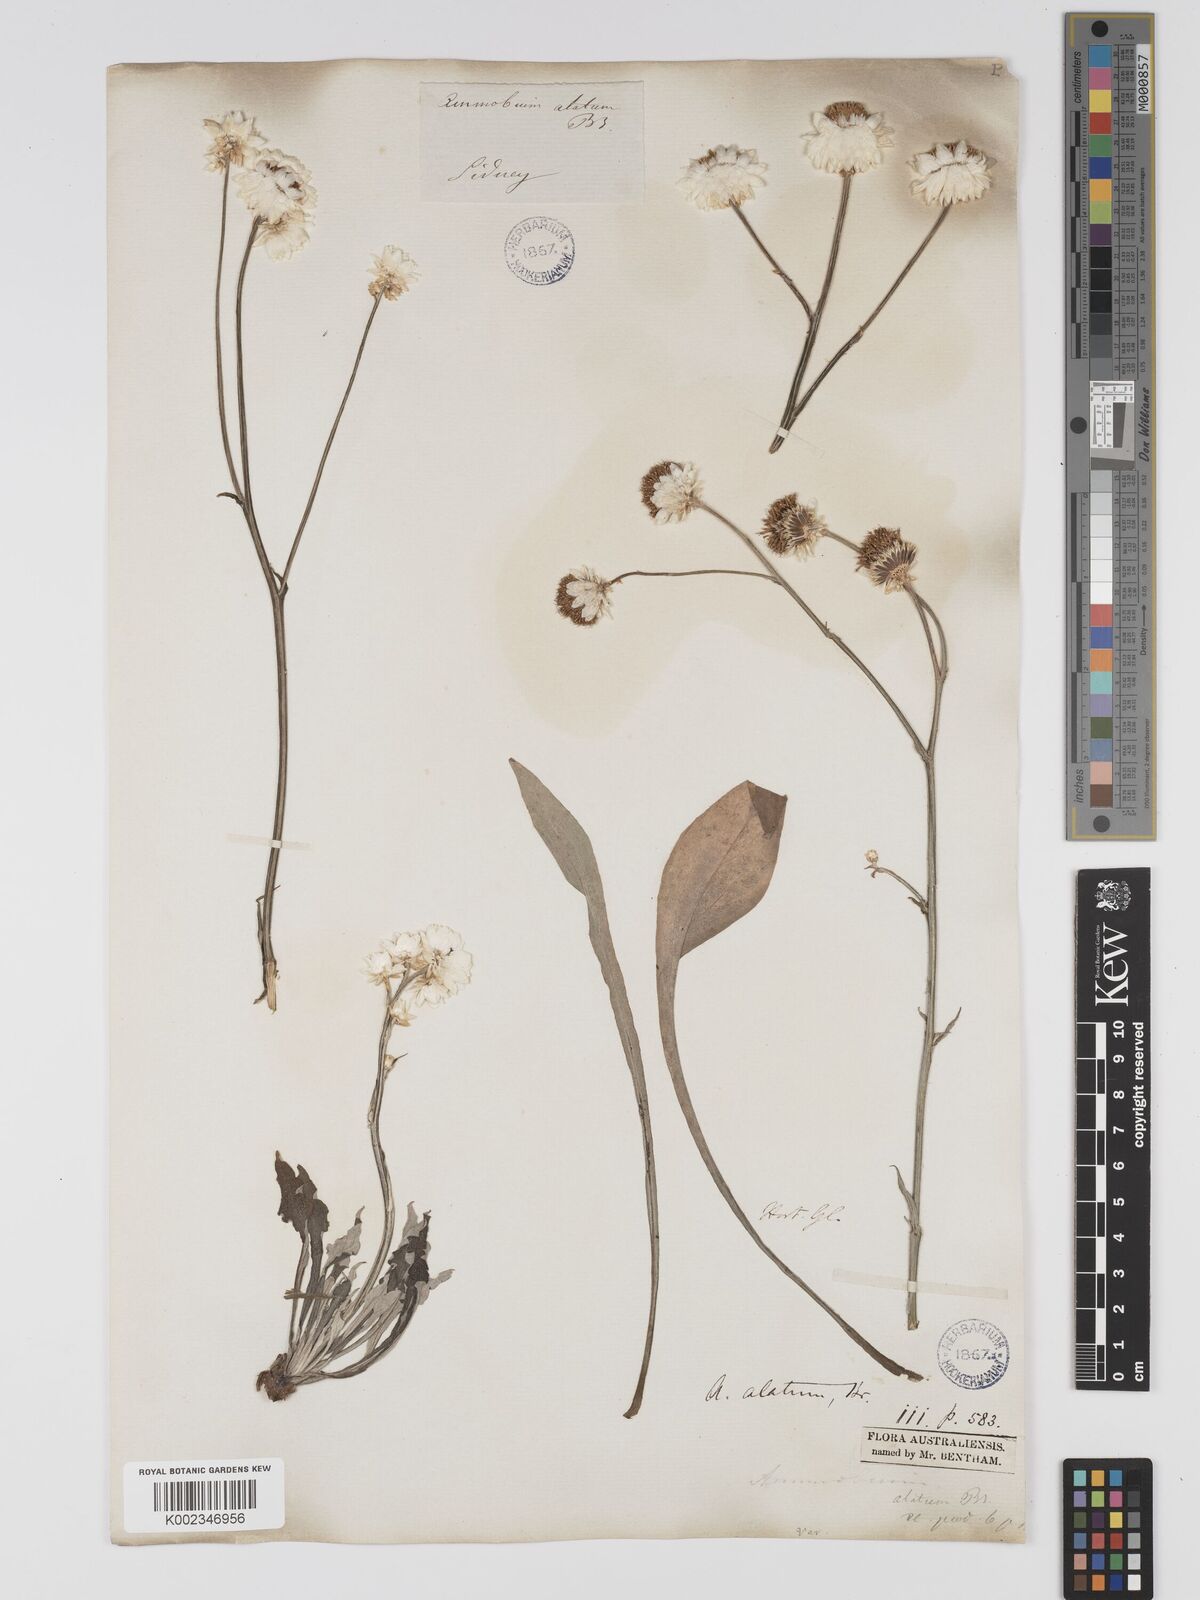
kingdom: Plantae
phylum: Tracheophyta
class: Magnoliopsida
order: Asterales
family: Asteraceae
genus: Ammobium
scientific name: Ammobium alatum
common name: Winged everlasting
